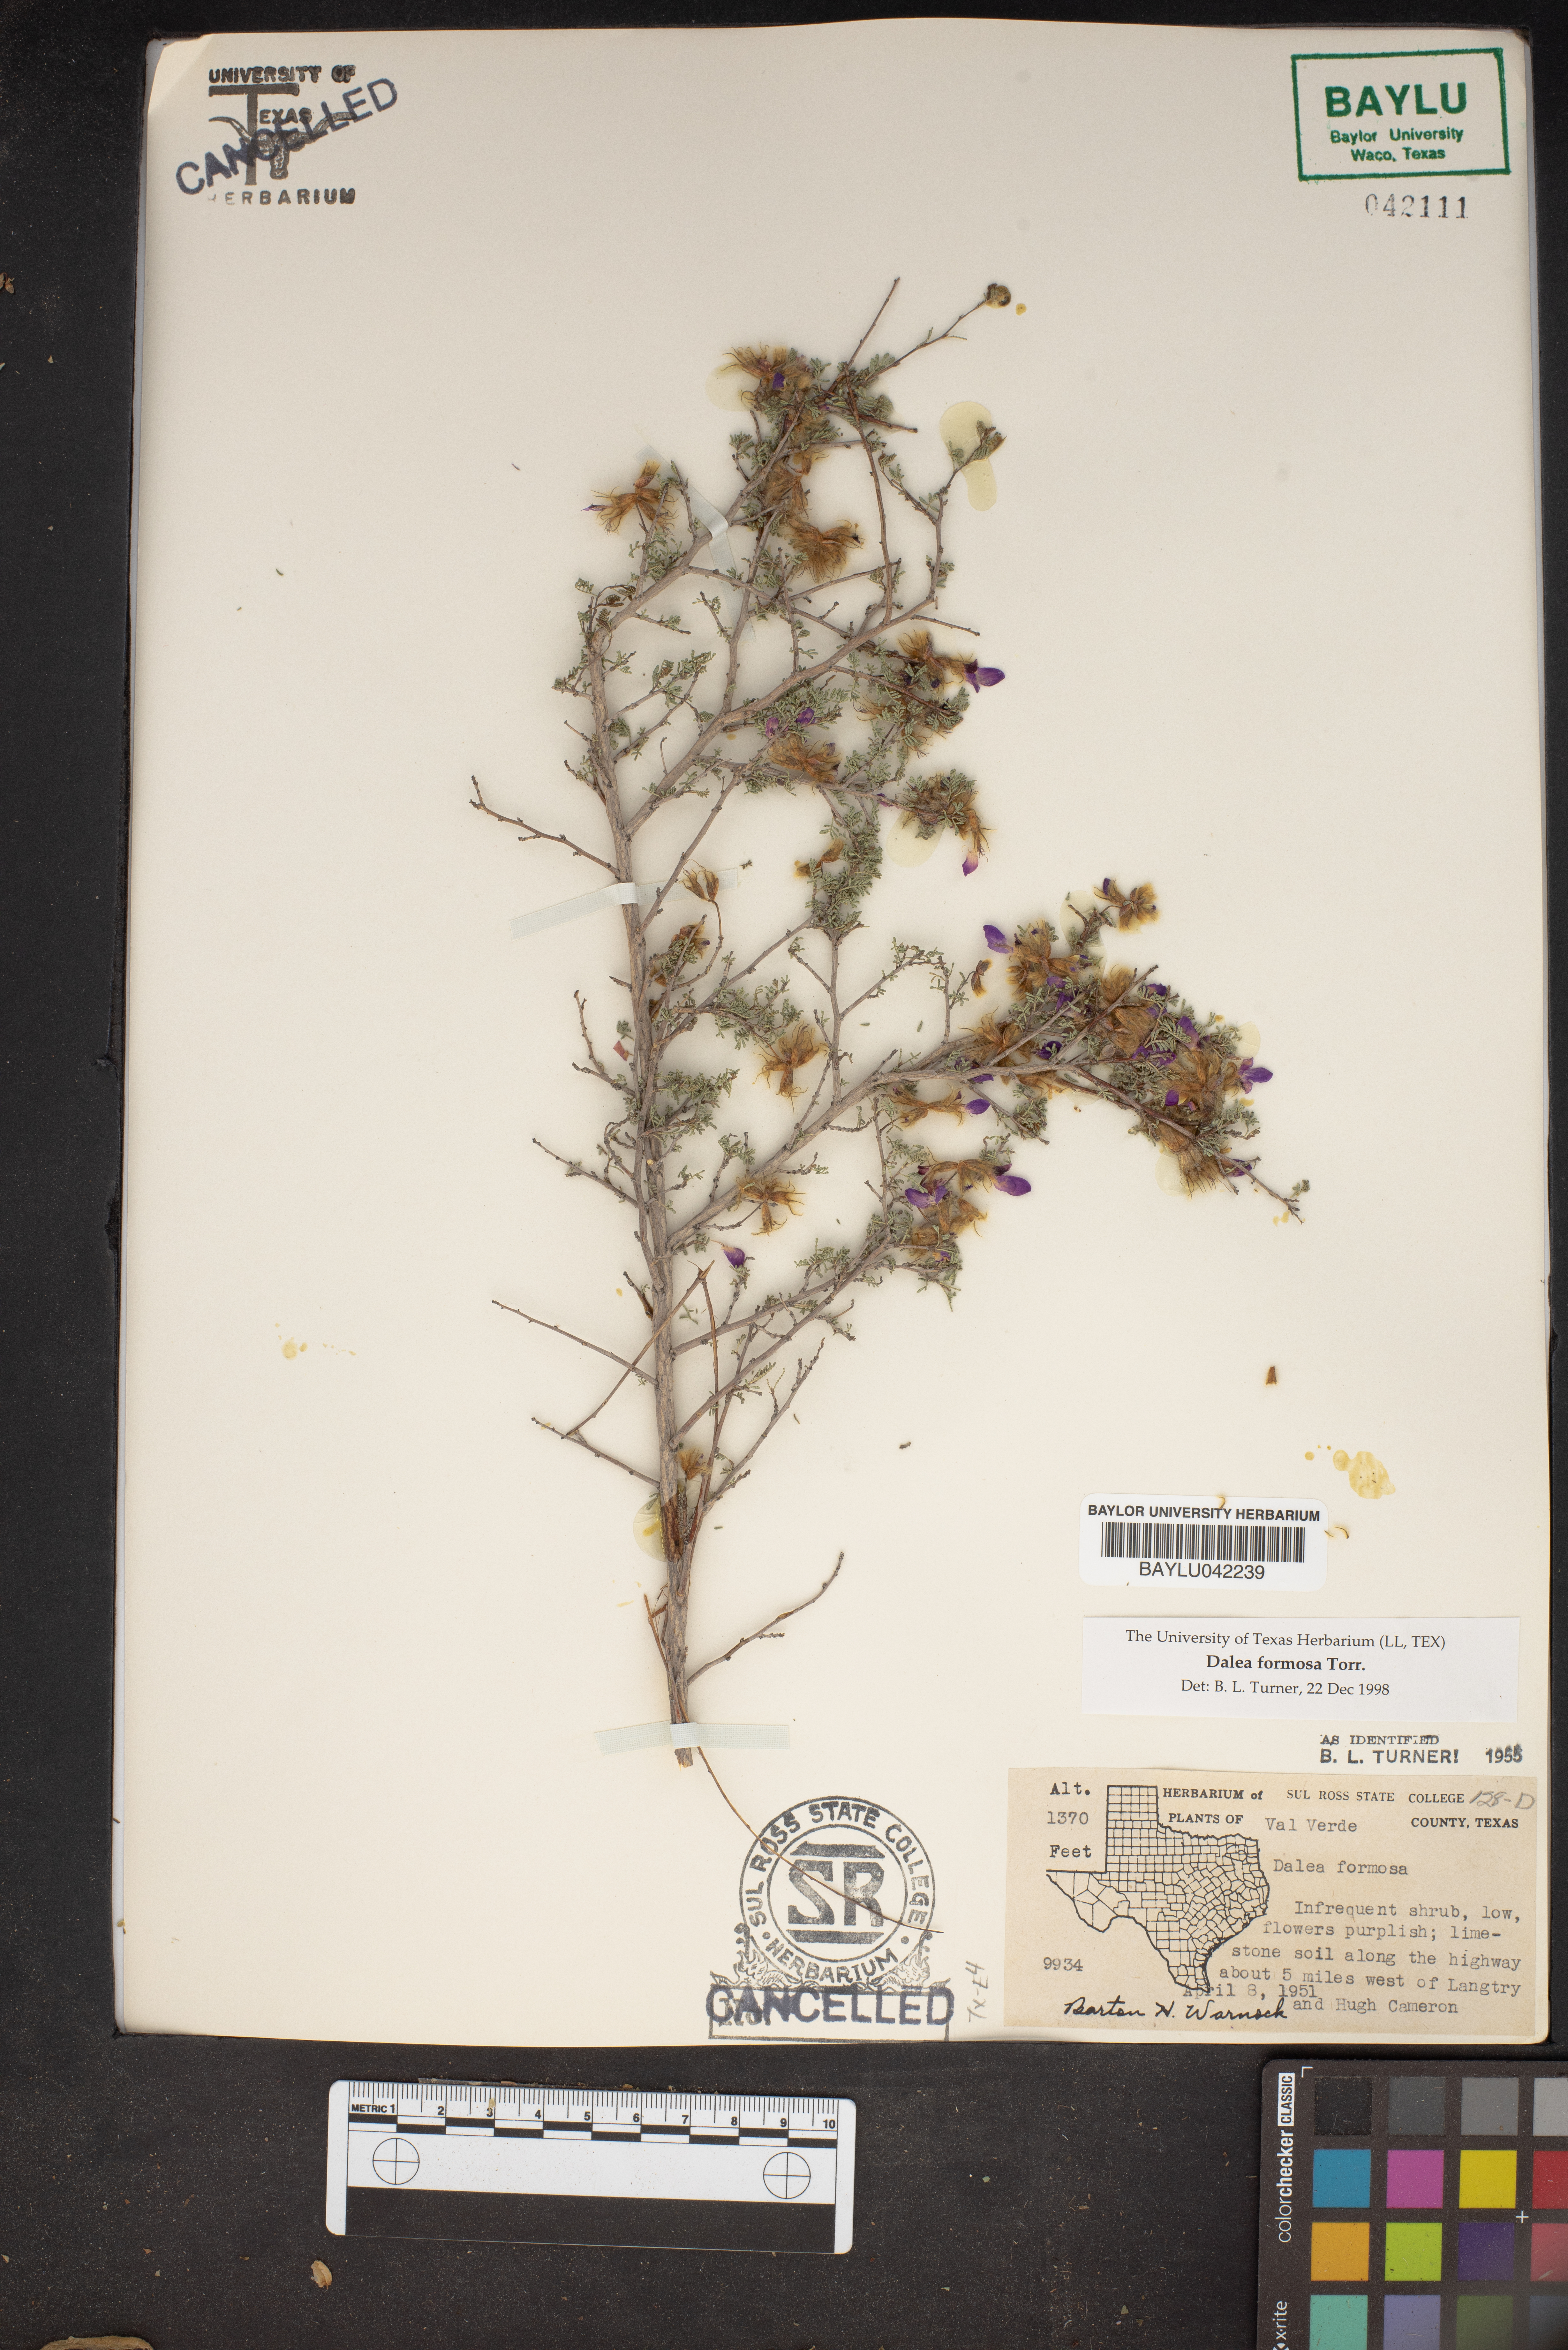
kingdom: Plantae
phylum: Tracheophyta
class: Magnoliopsida
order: Fabales
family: Fabaceae
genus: Dalea
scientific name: Dalea formosa
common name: Feather-plume dalea
